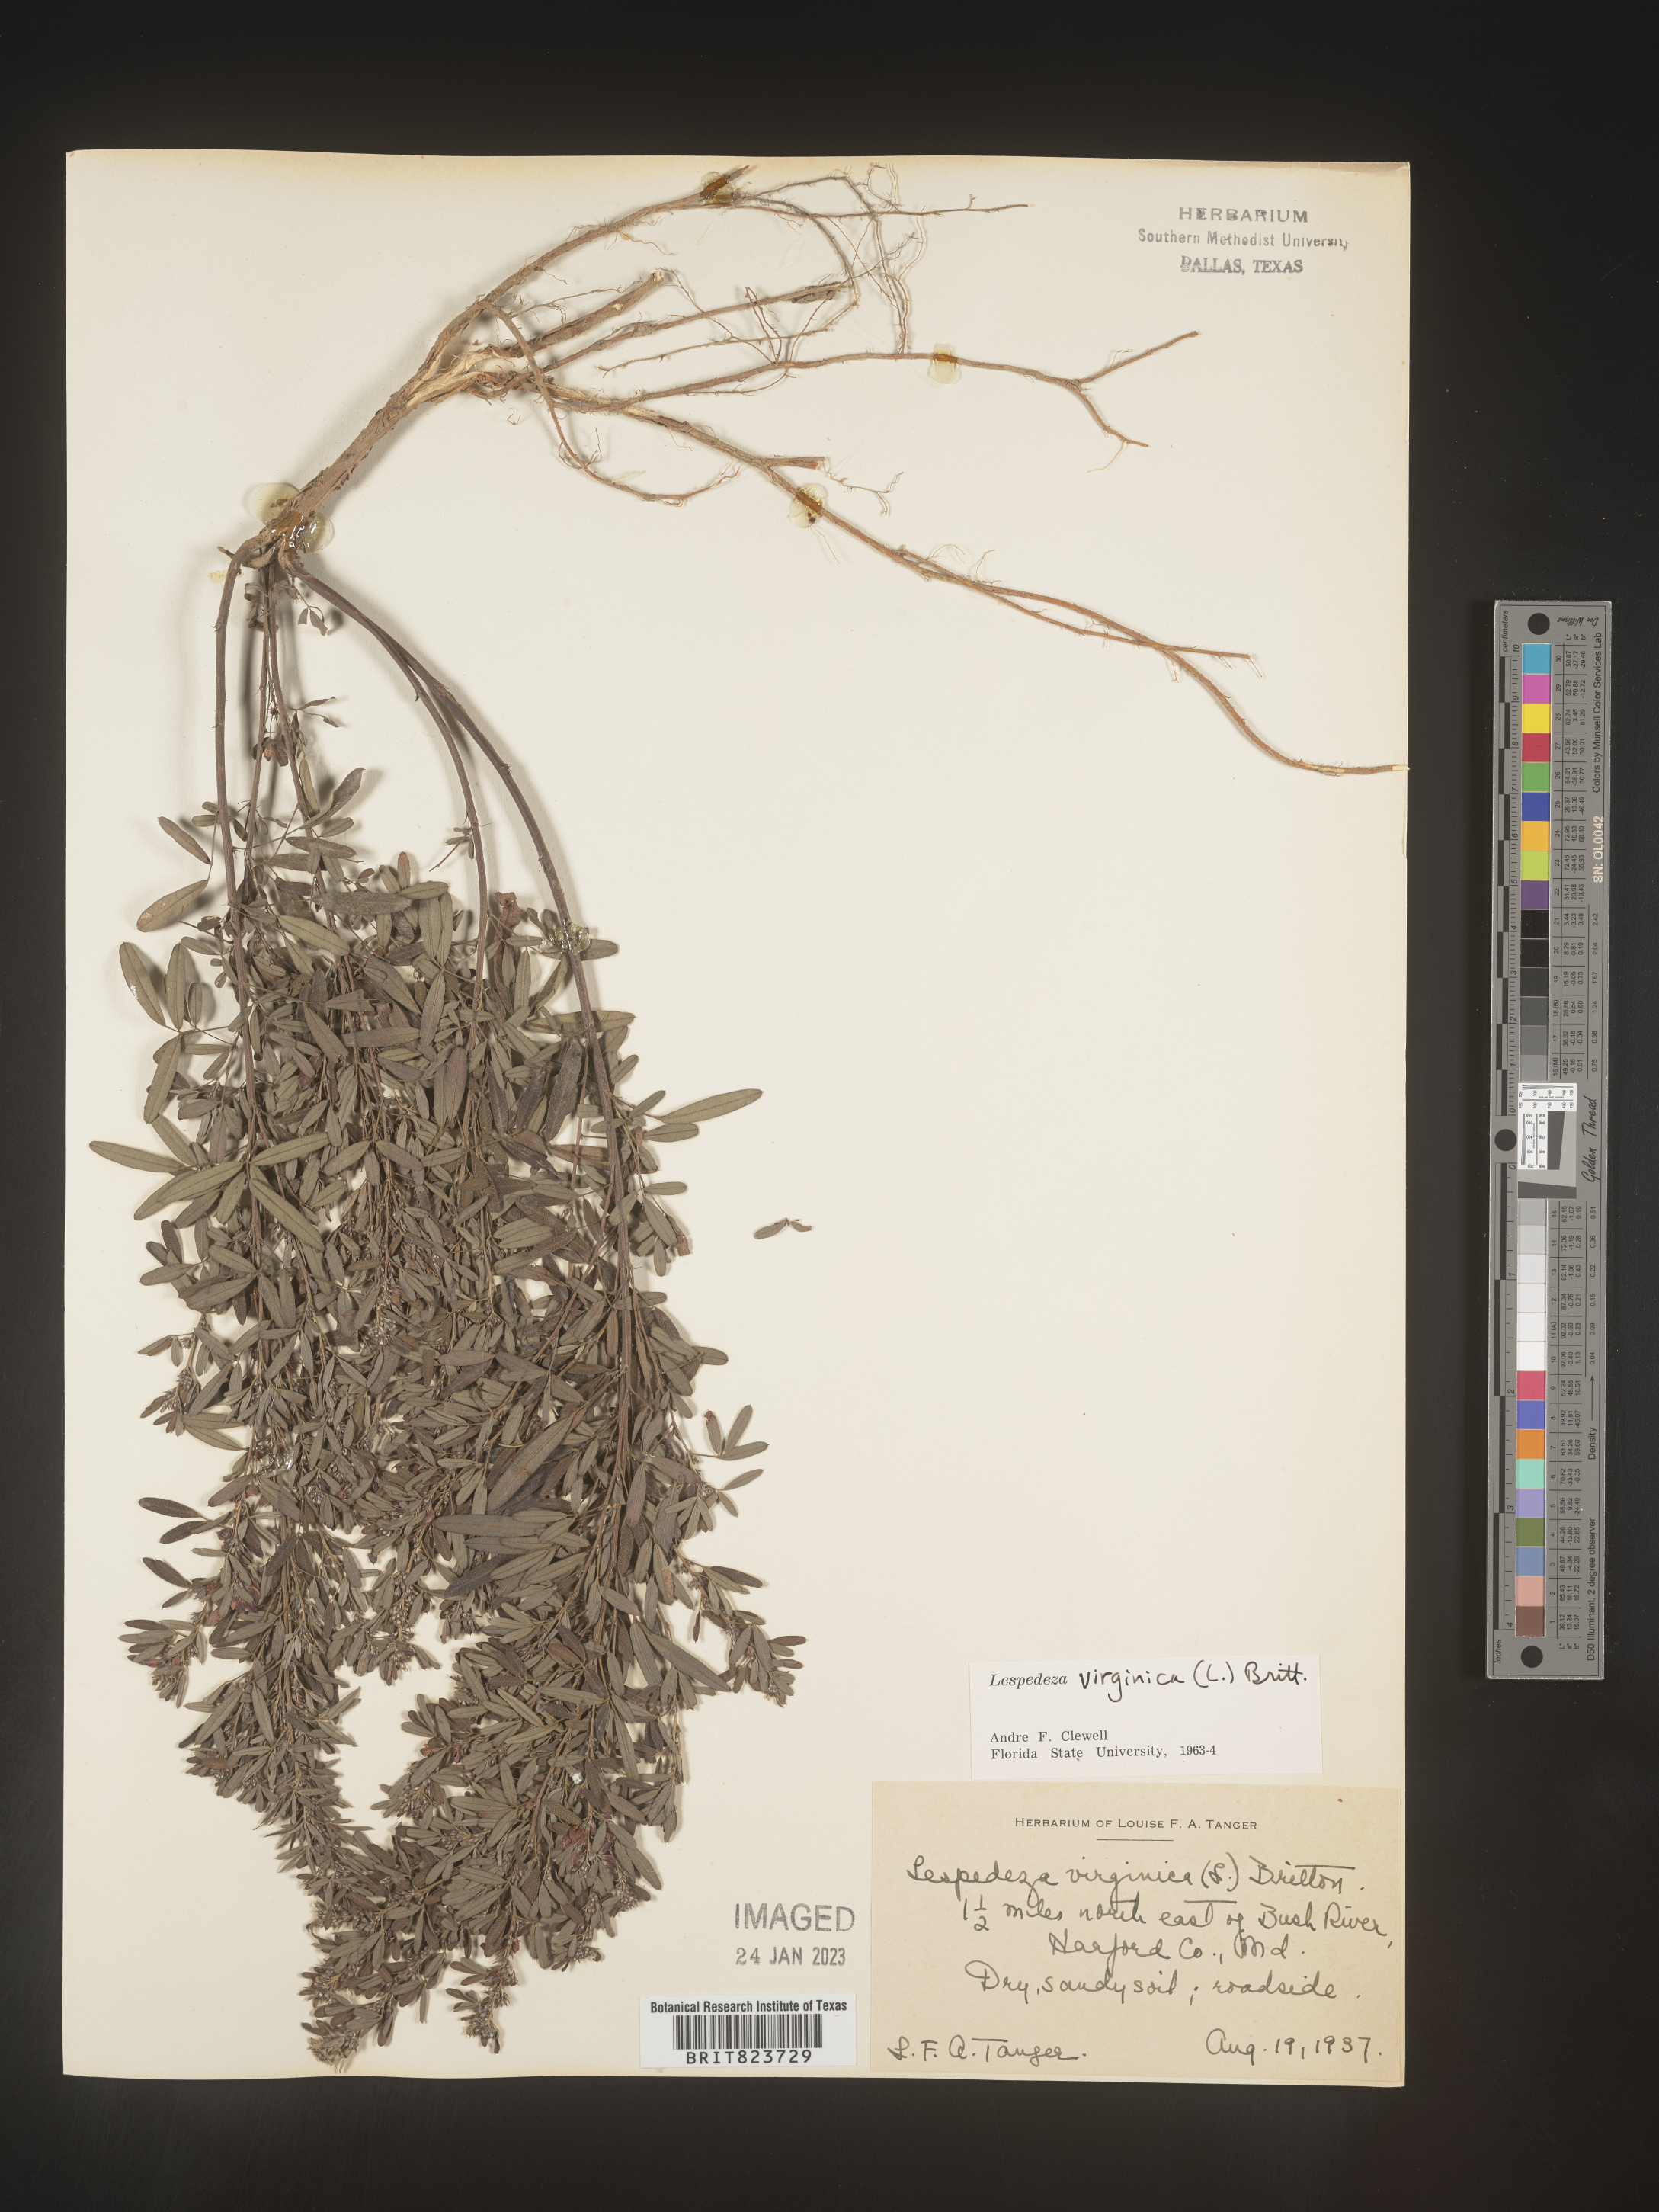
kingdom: Plantae
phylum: Tracheophyta
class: Magnoliopsida
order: Fabales
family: Fabaceae
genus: Lespedeza
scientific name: Lespedeza virginica
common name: Slender bush-clover
